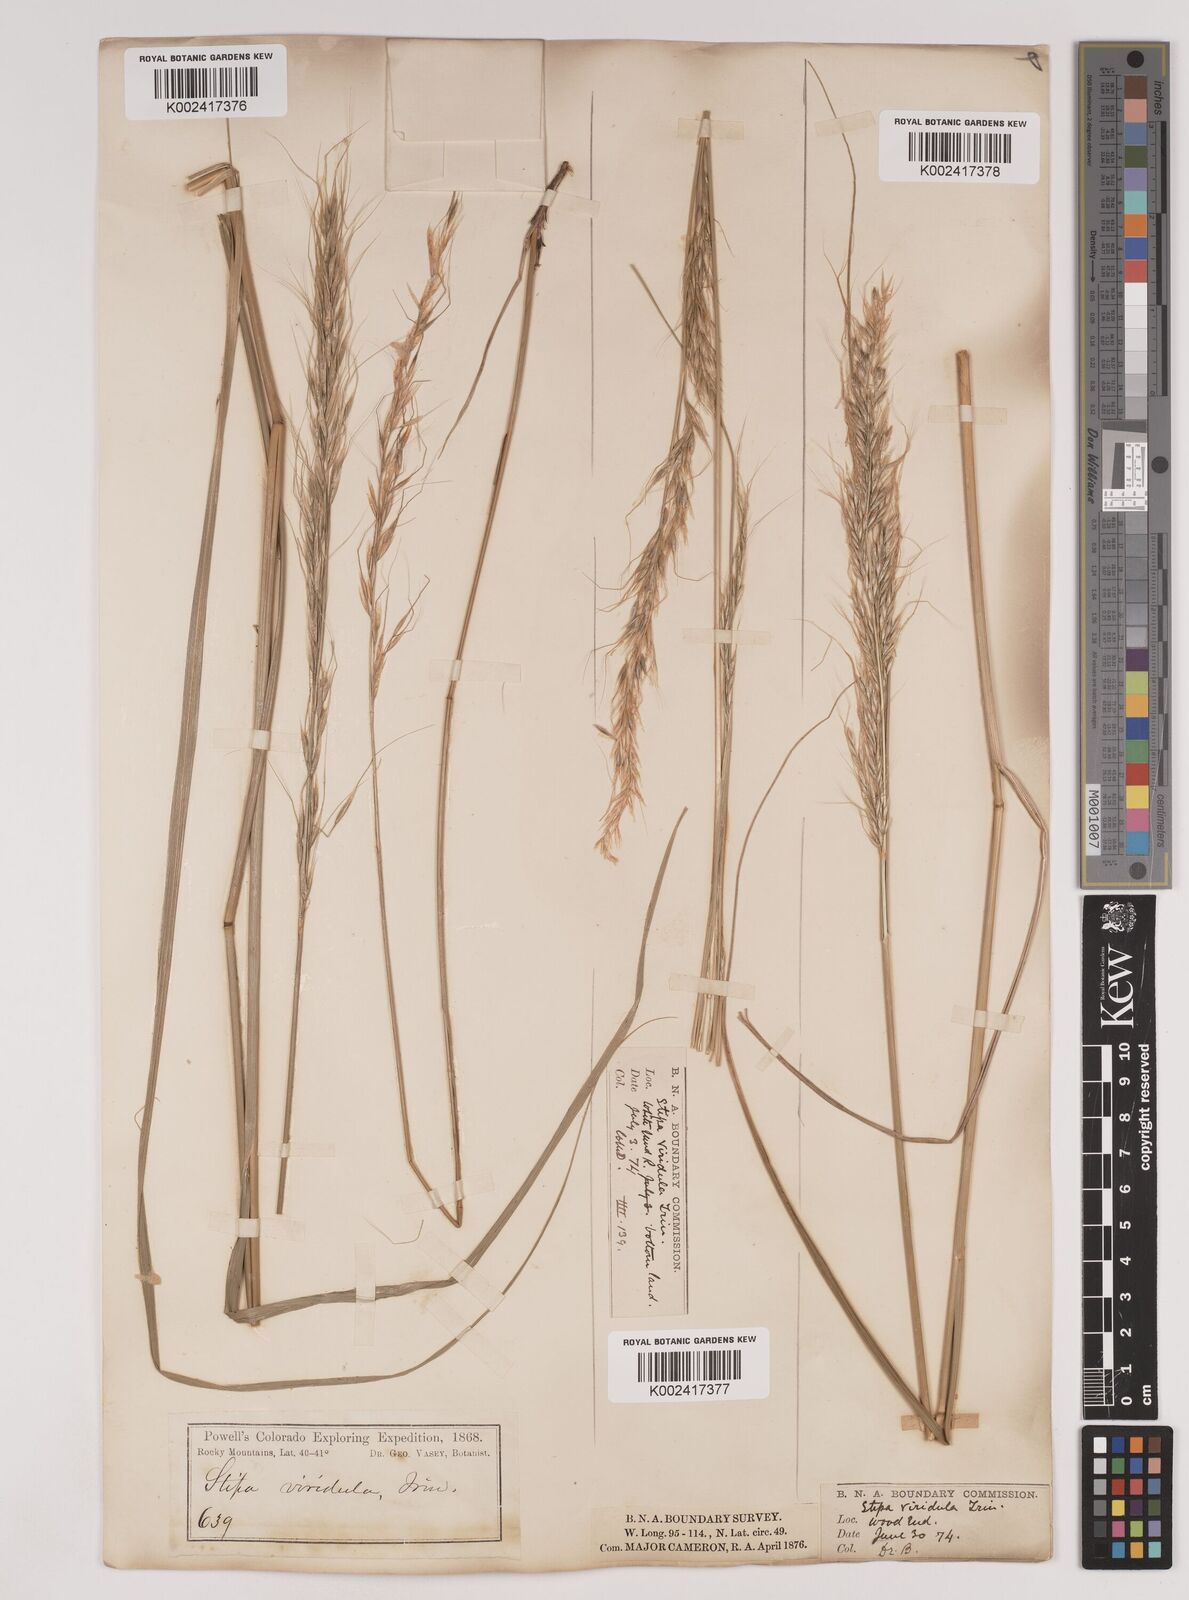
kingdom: Plantae
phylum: Tracheophyta
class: Liliopsida
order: Poales
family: Poaceae
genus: Nassella
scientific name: Nassella viridula
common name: Green needlegrass
